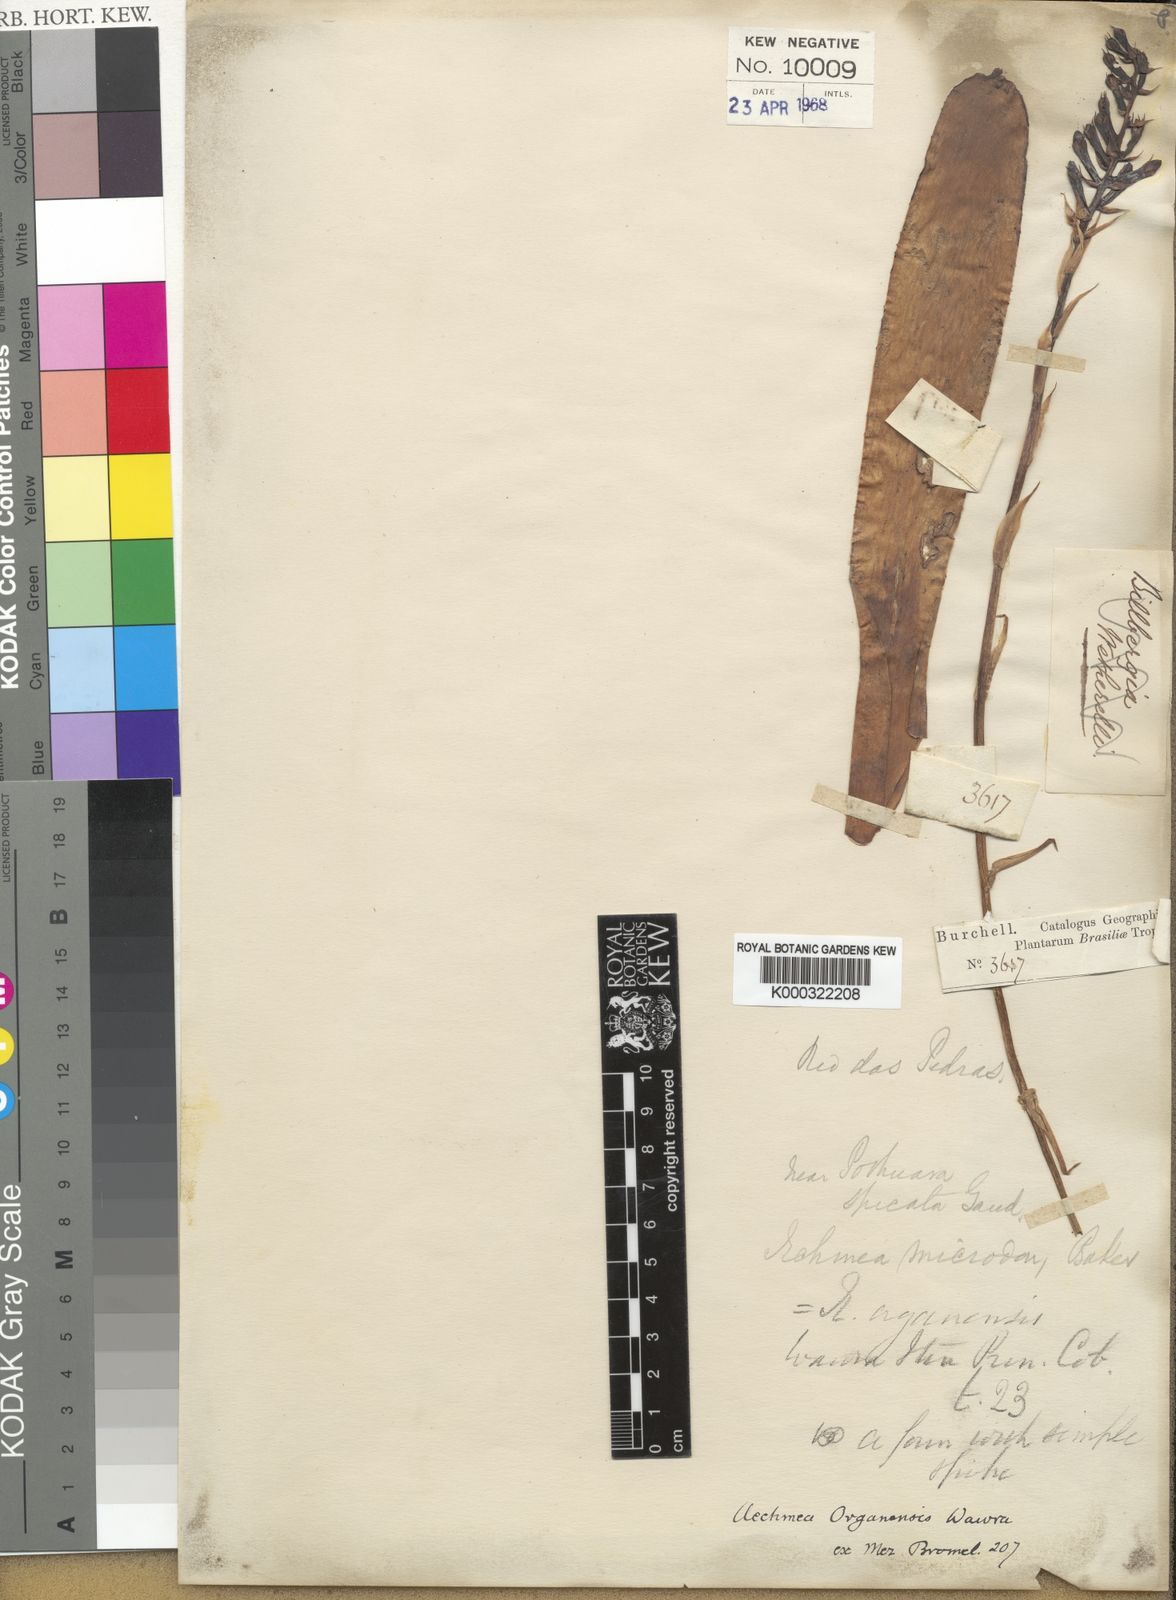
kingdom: Plantae
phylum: Tracheophyta
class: Liliopsida
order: Poales
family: Bromeliaceae
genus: Aechmea
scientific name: Aechmea organensis
